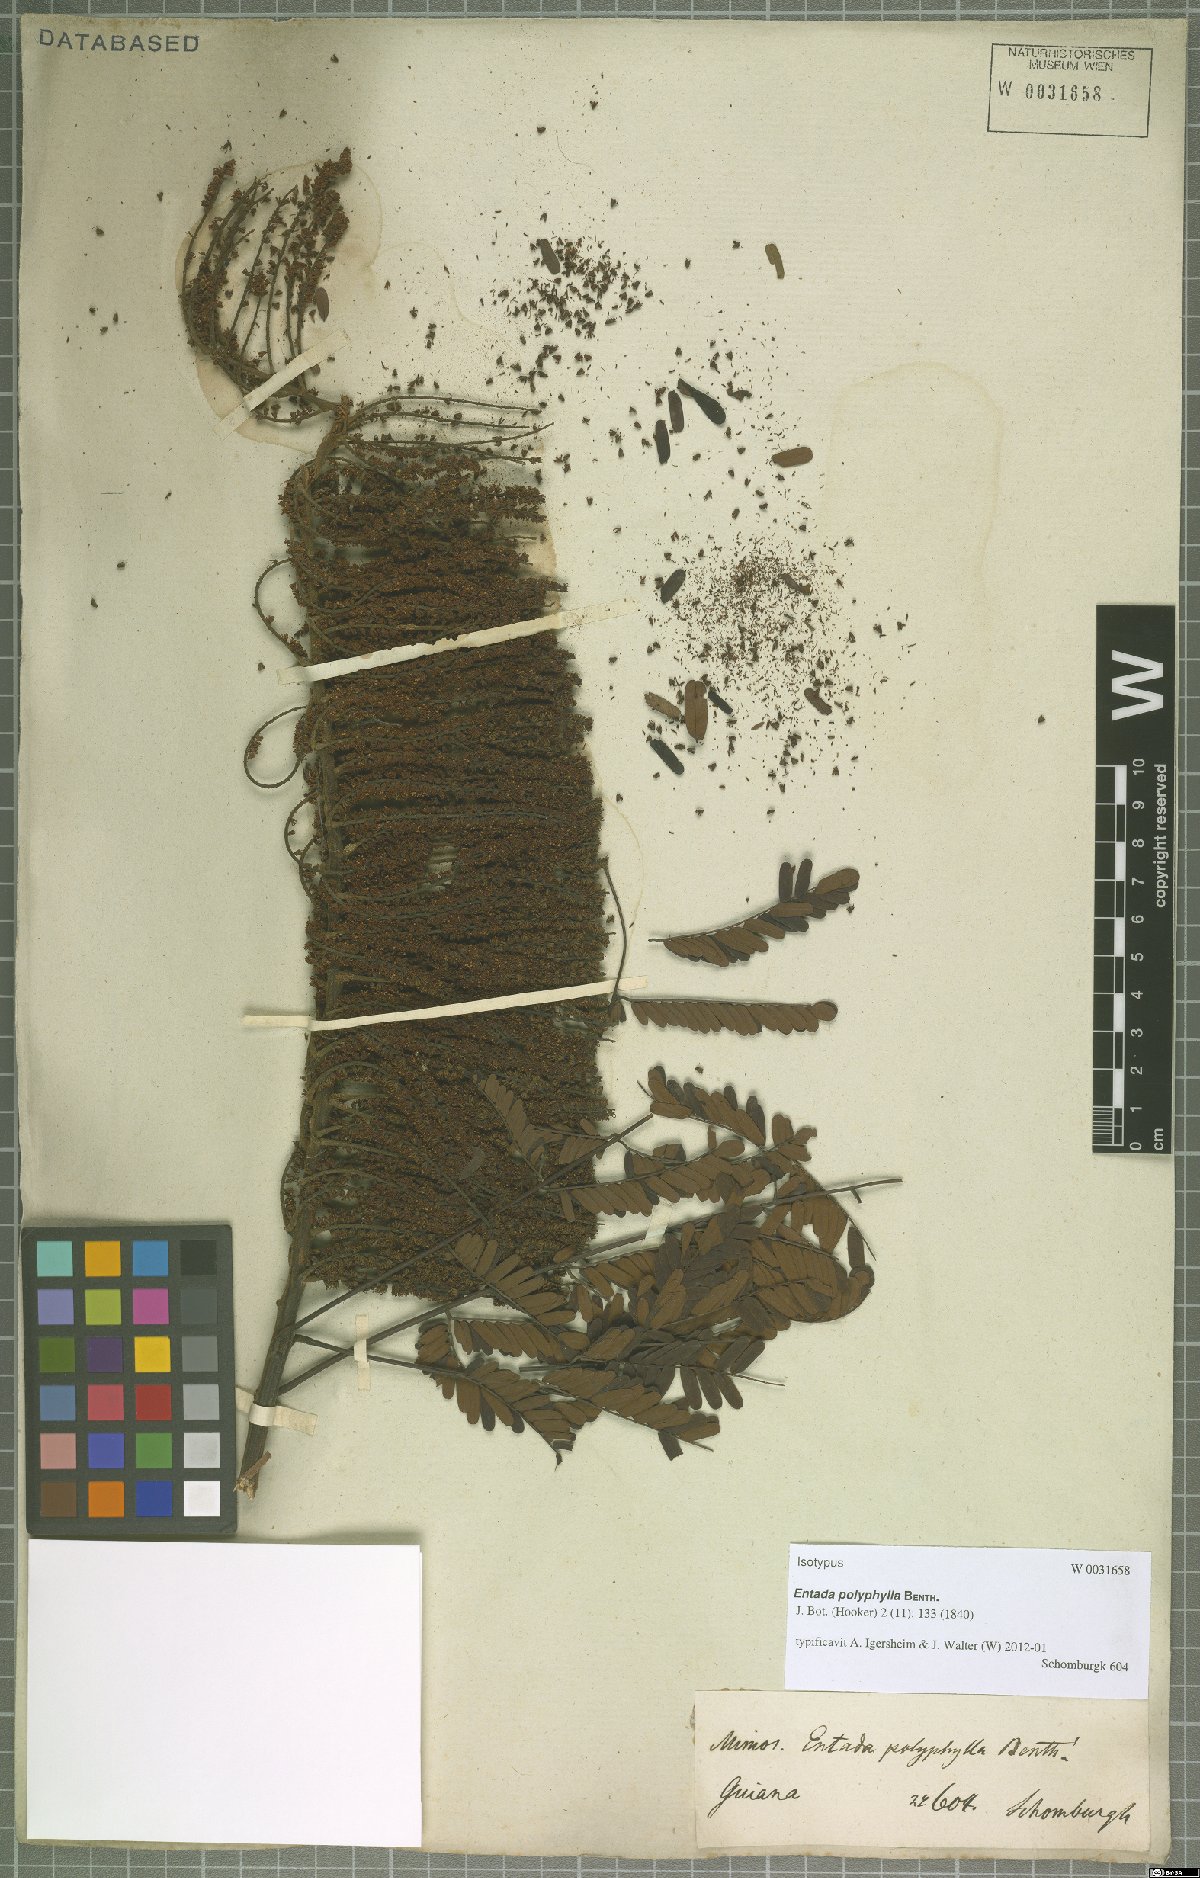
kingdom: Plantae
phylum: Tracheophyta
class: Magnoliopsida
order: Fabales
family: Fabaceae
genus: Entada
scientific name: Entada polyphylla
